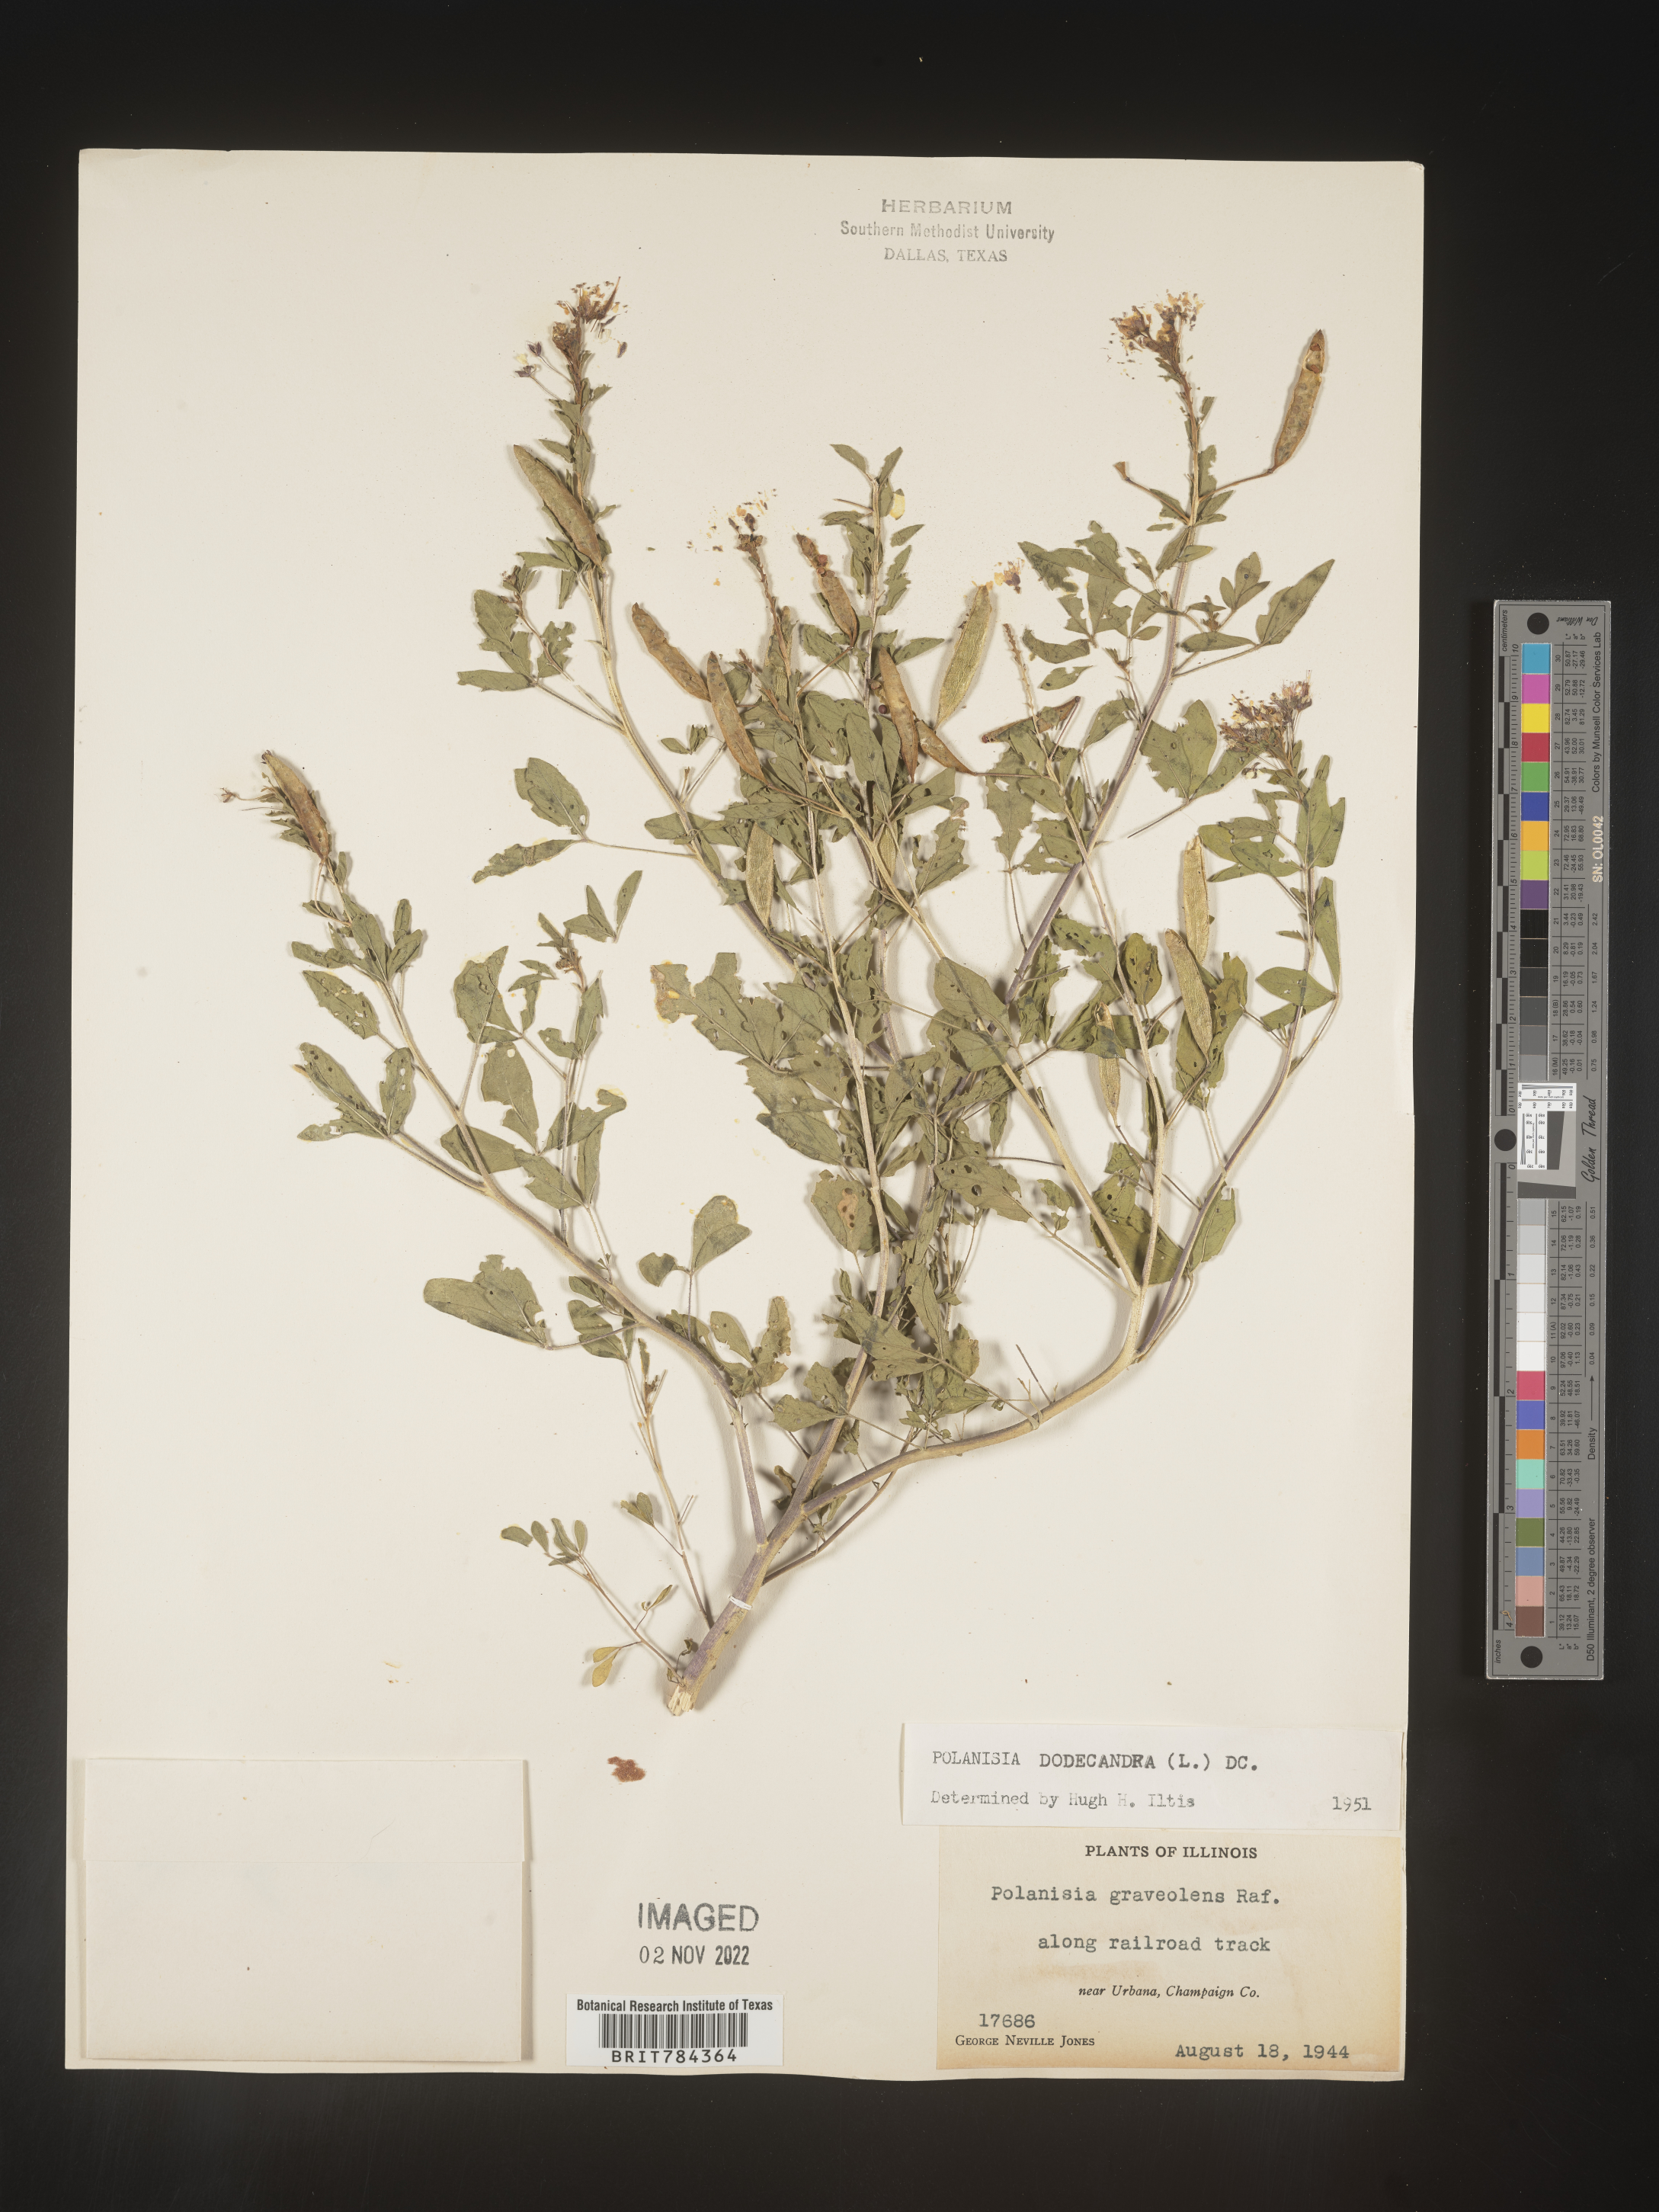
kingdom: Plantae
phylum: Tracheophyta
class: Magnoliopsida
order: Brassicales
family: Cleomaceae
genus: Polanisia
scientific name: Polanisia dodecandra
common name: Clammyweed
